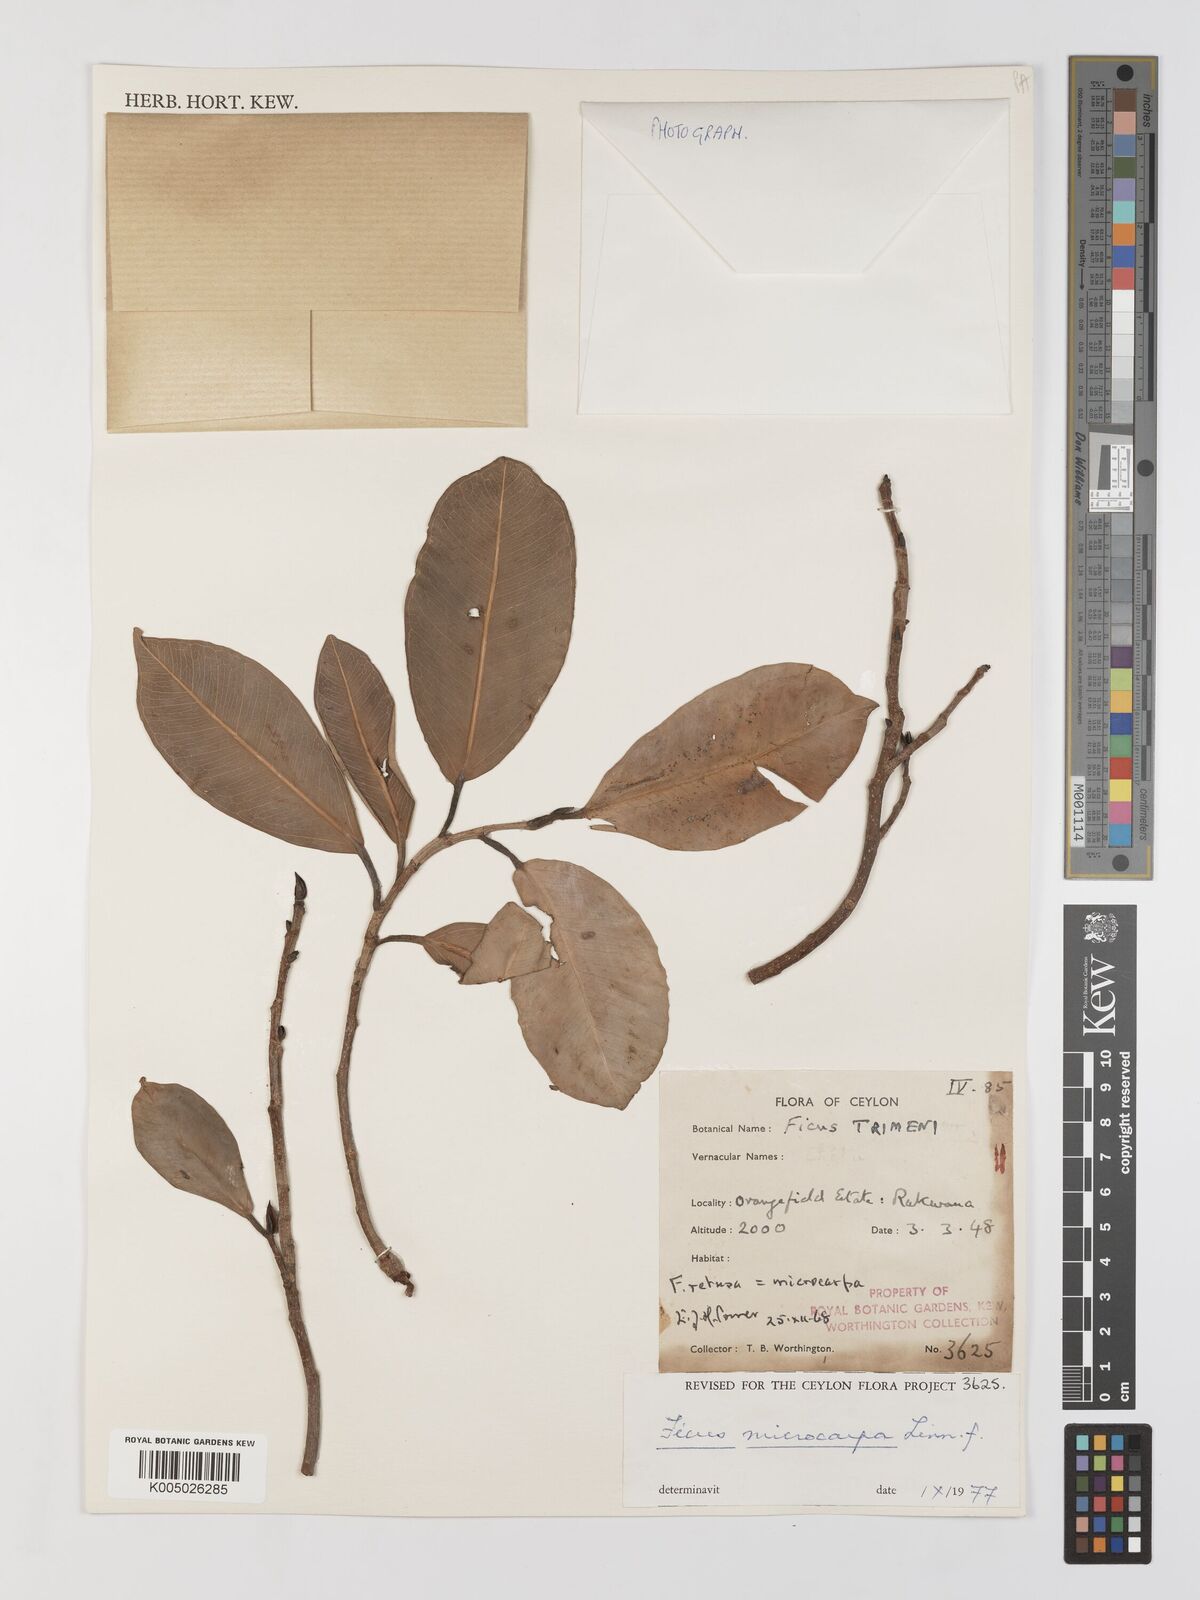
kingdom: Plantae
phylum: Tracheophyta
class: Magnoliopsida
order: Rosales
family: Moraceae
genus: Ficus
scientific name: Ficus
